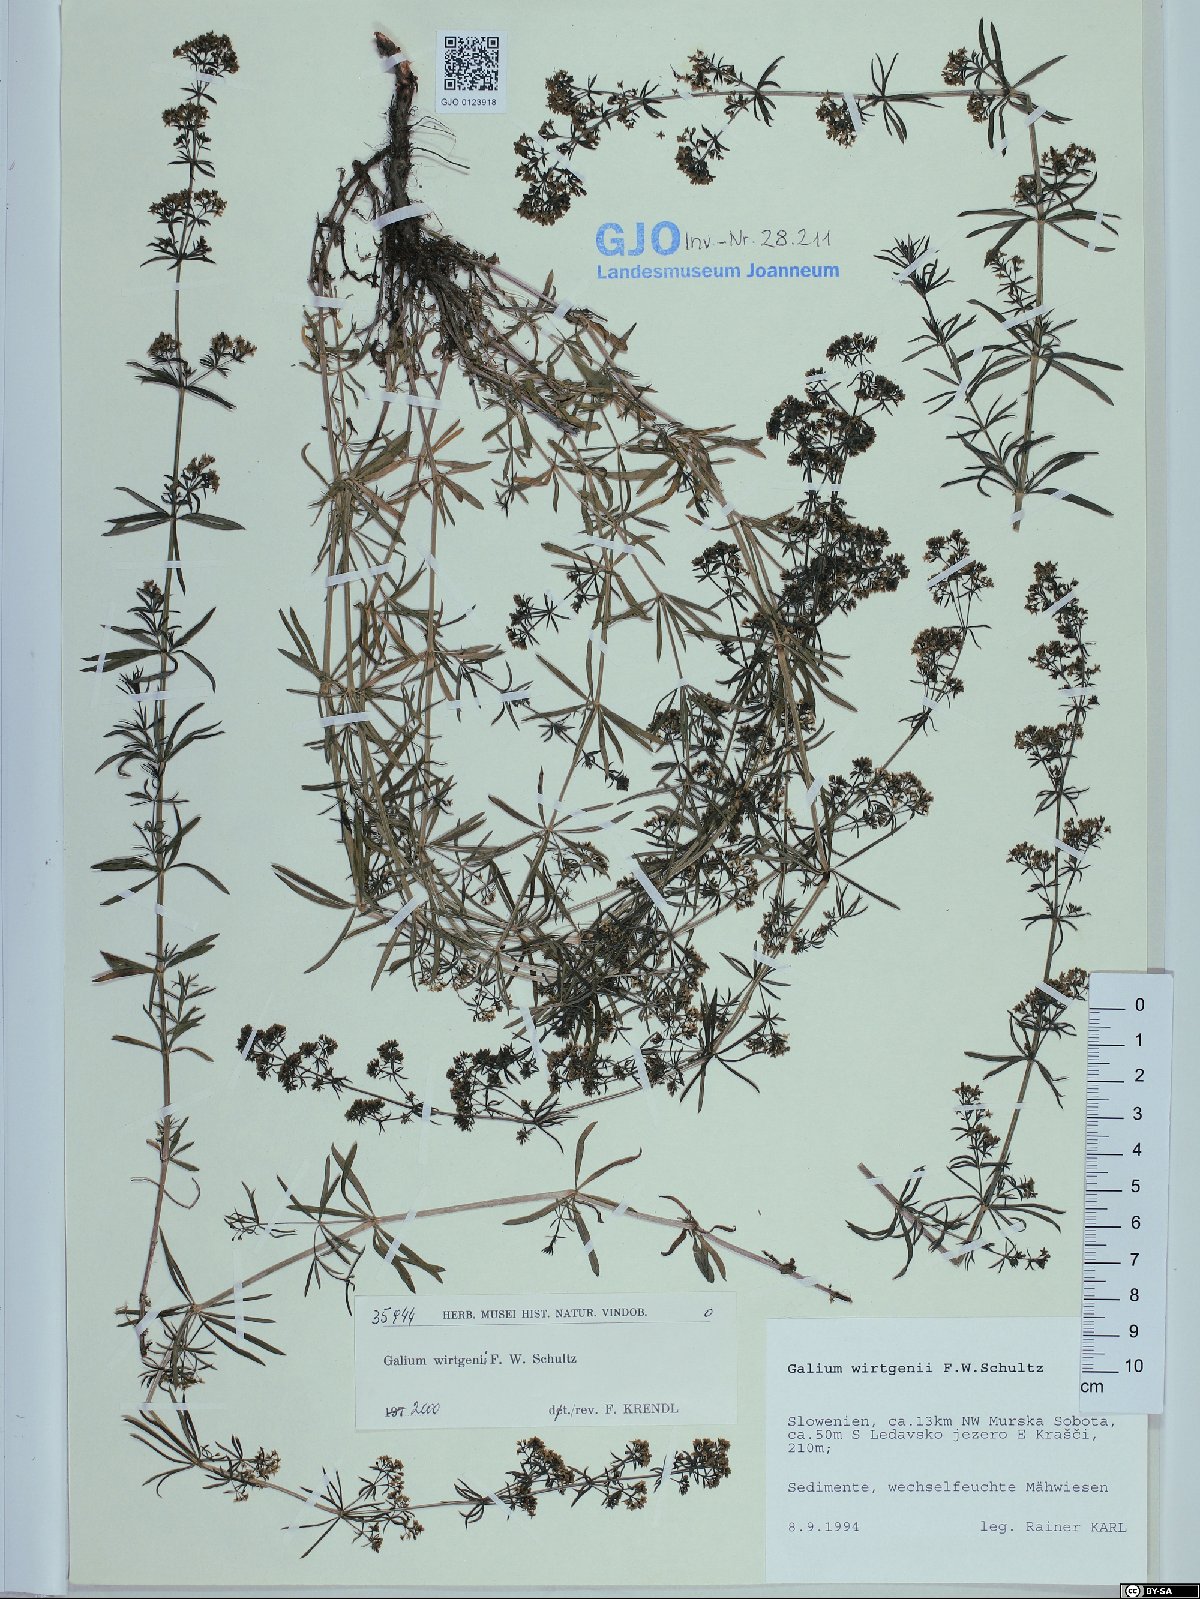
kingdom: Plantae
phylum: Tracheophyta
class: Magnoliopsida
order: Gentianales
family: Rubiaceae
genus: Galium
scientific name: Galium verum
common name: Lady's bedstraw
